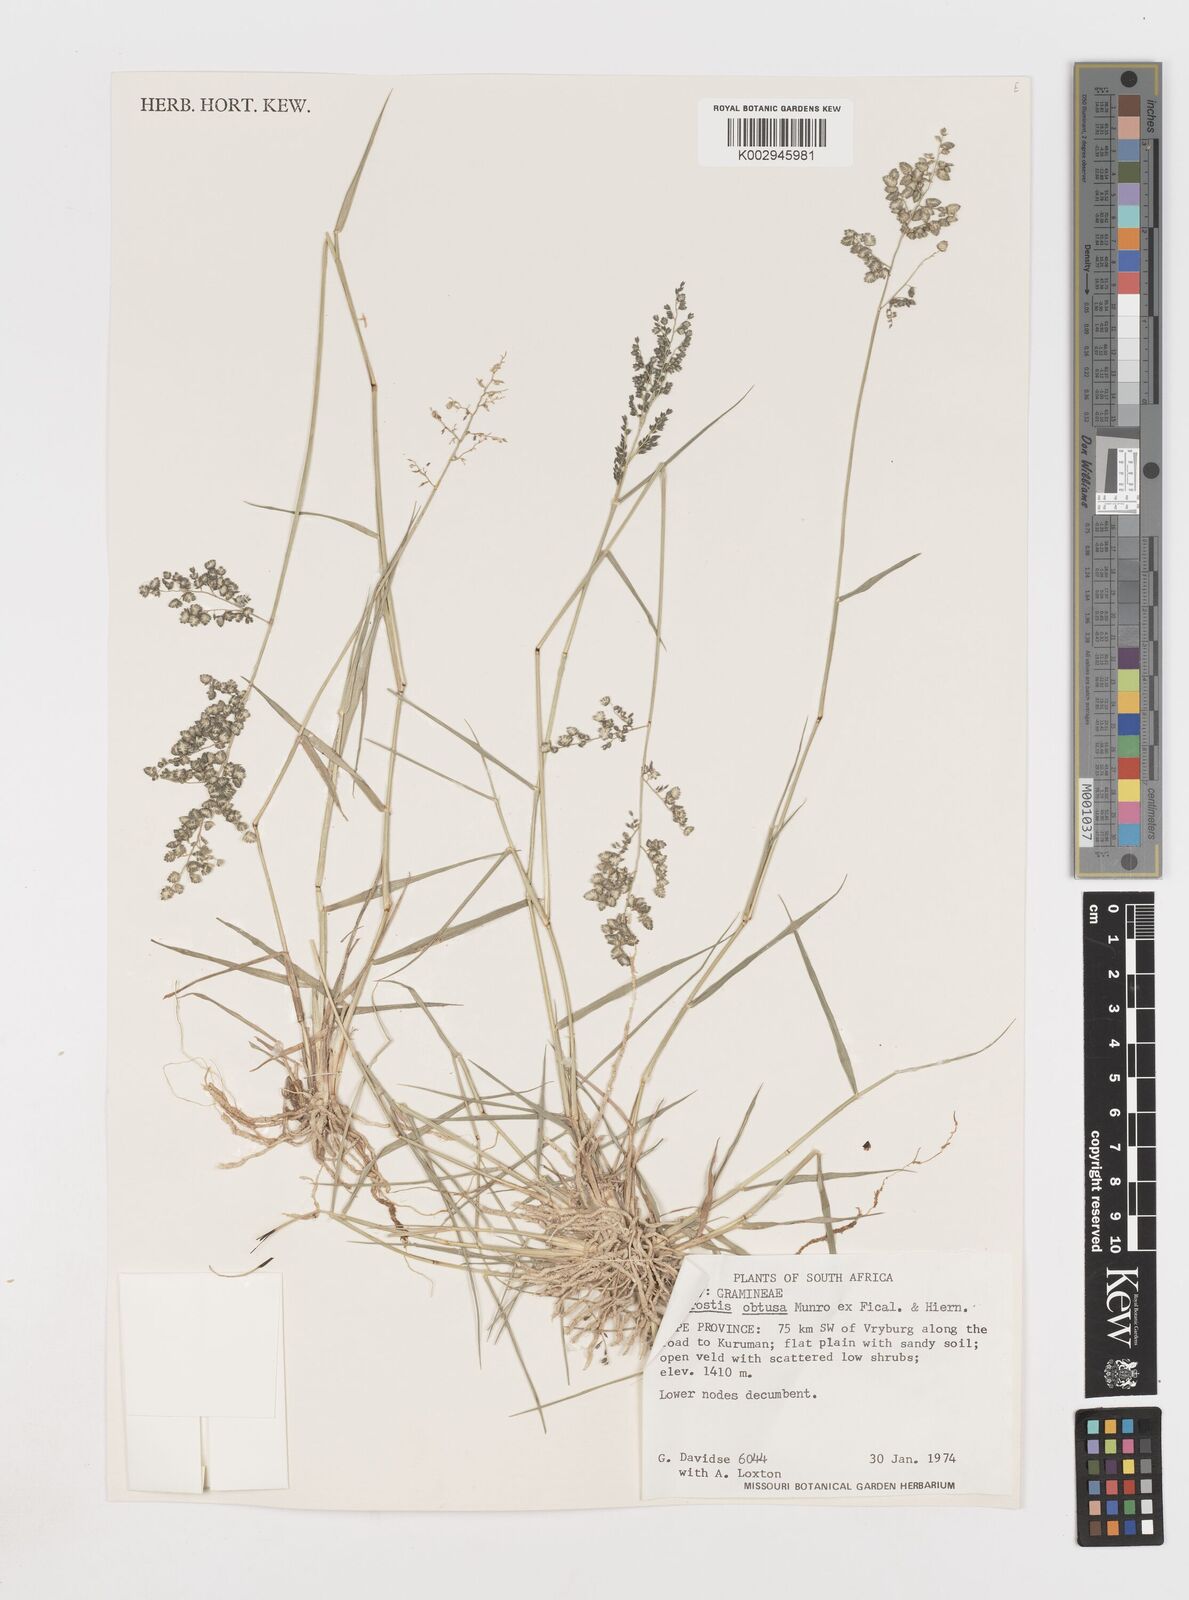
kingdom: Plantae
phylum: Tracheophyta
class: Liliopsida
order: Poales
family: Poaceae
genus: Eragrostis
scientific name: Eragrostis obtusa
